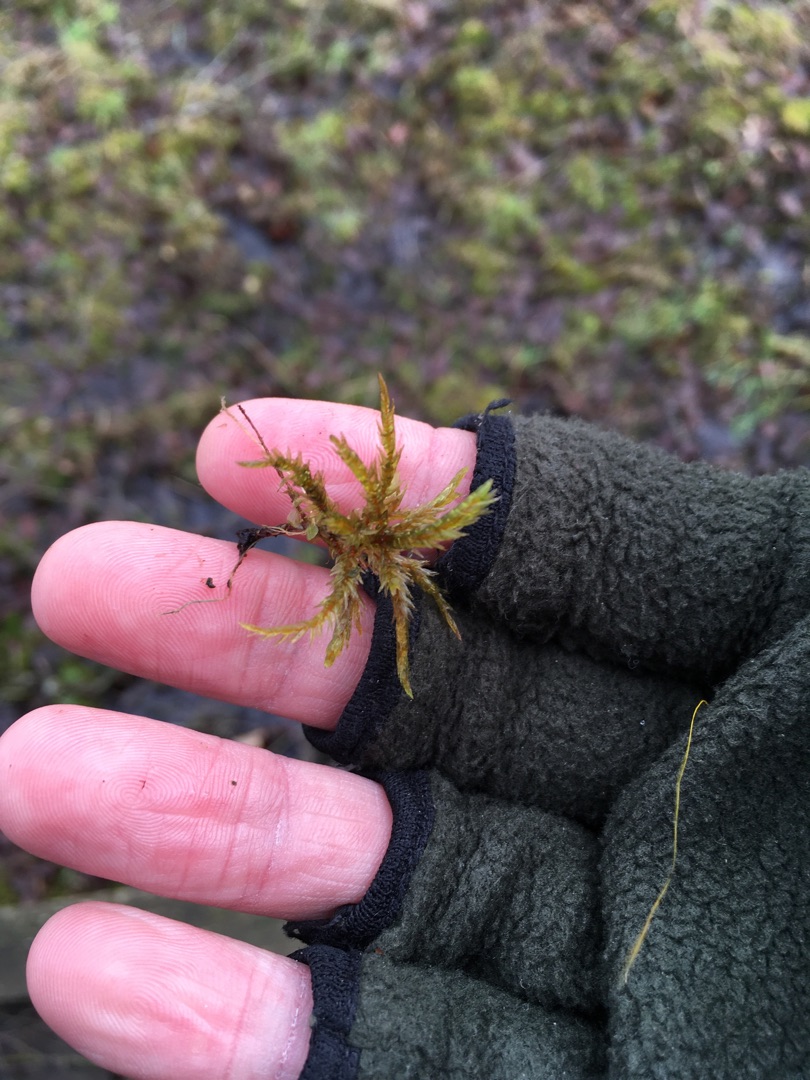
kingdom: Plantae
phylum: Bryophyta
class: Bryopsida
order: Hypnales
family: Climaciaceae
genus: Climacium
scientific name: Climacium dendroides
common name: Stor engkost
